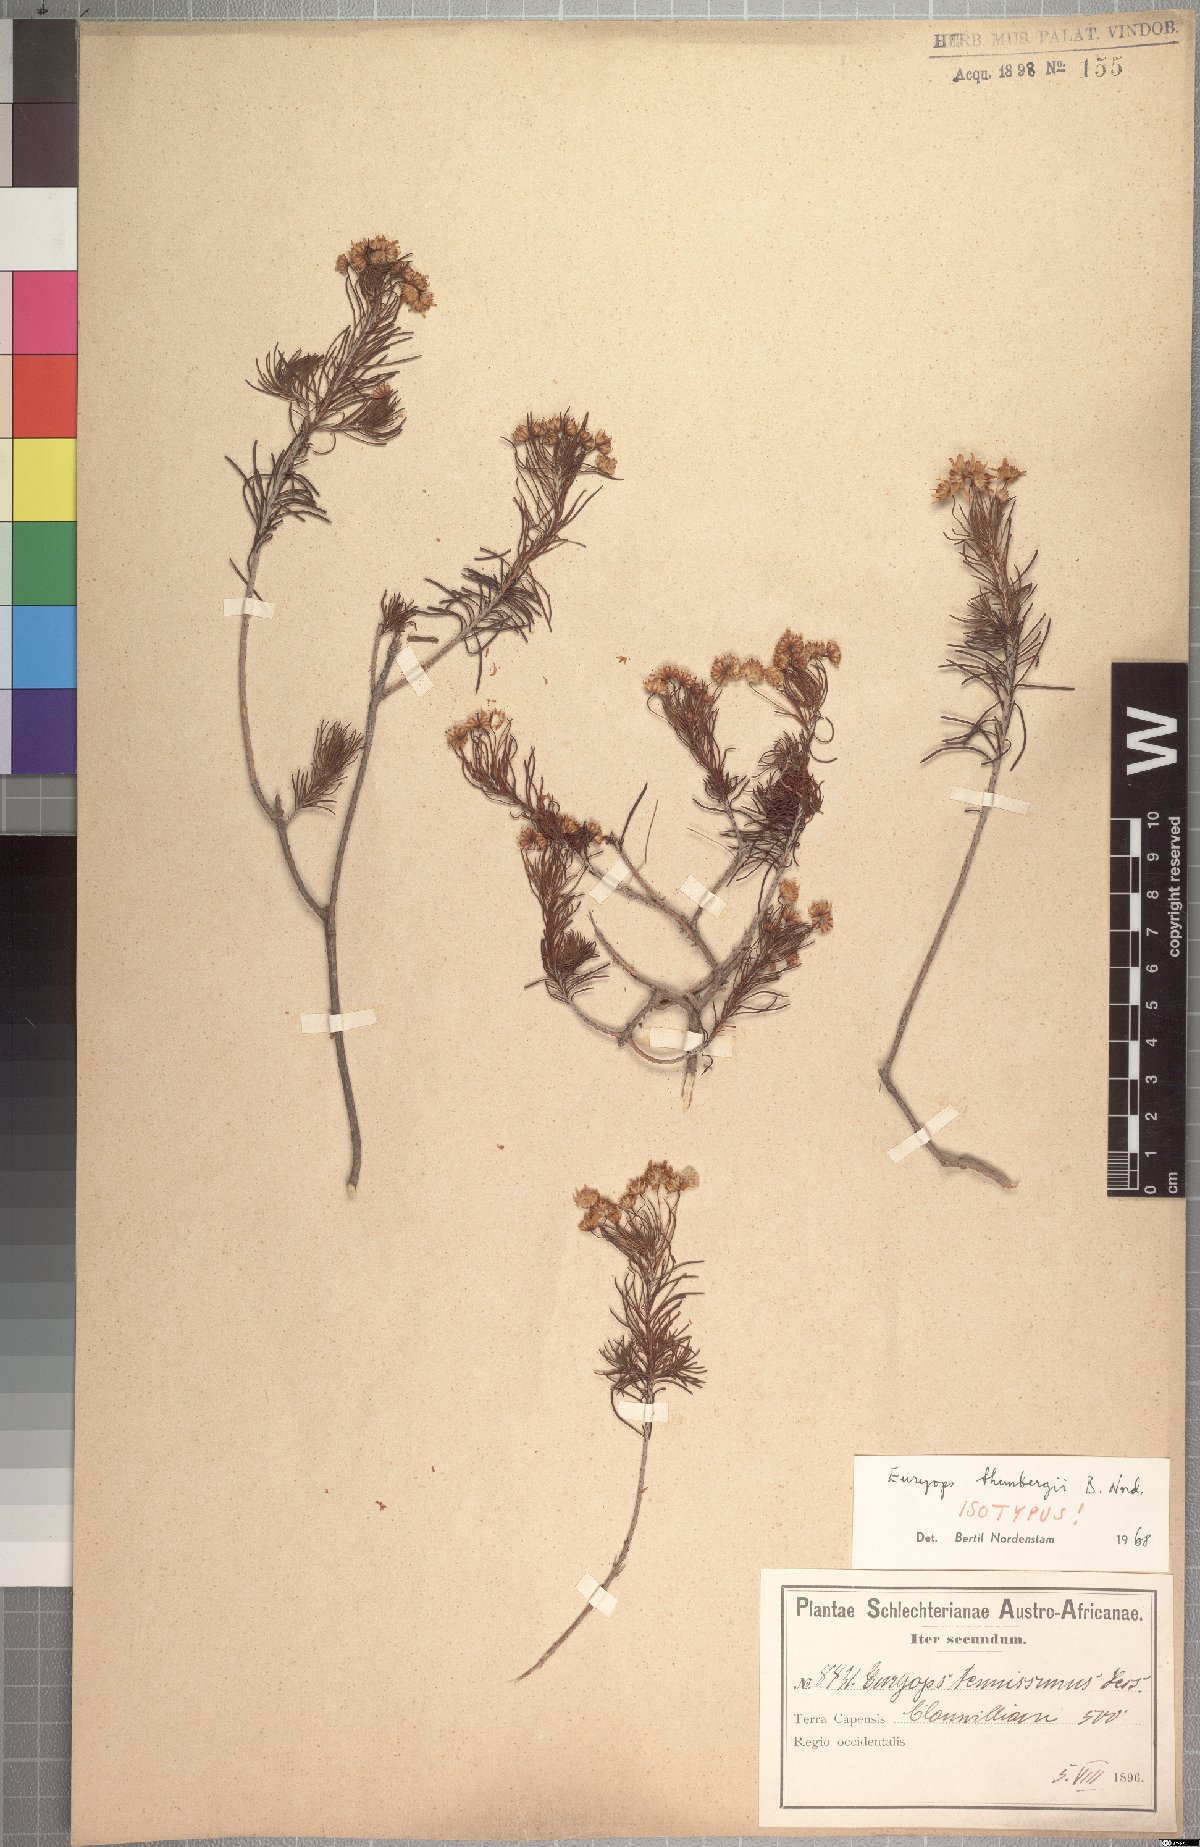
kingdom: Plantae
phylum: Tracheophyta
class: Magnoliopsida
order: Asterales
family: Asteraceae
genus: Euryops
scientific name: Euryops thunbergii
